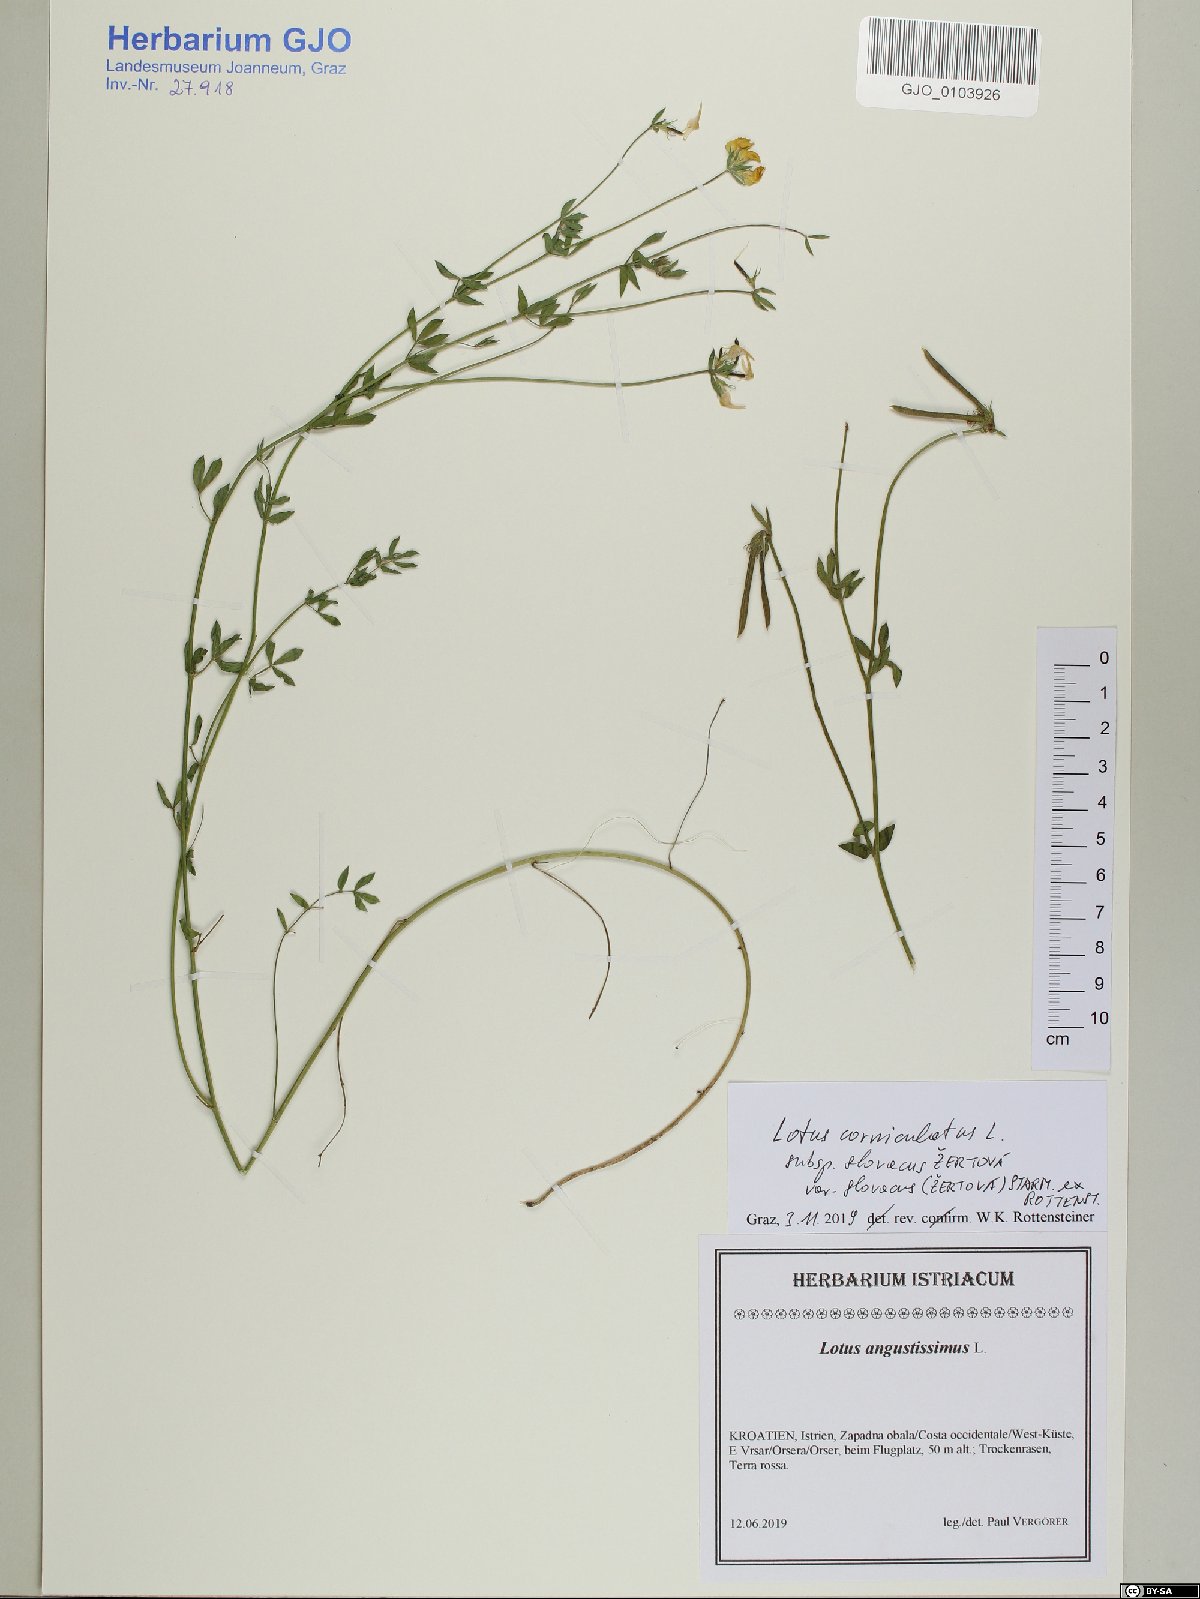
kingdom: Plantae
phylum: Tracheophyta
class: Magnoliopsida
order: Fabales
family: Fabaceae
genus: Lotus
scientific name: Lotus borbasii
